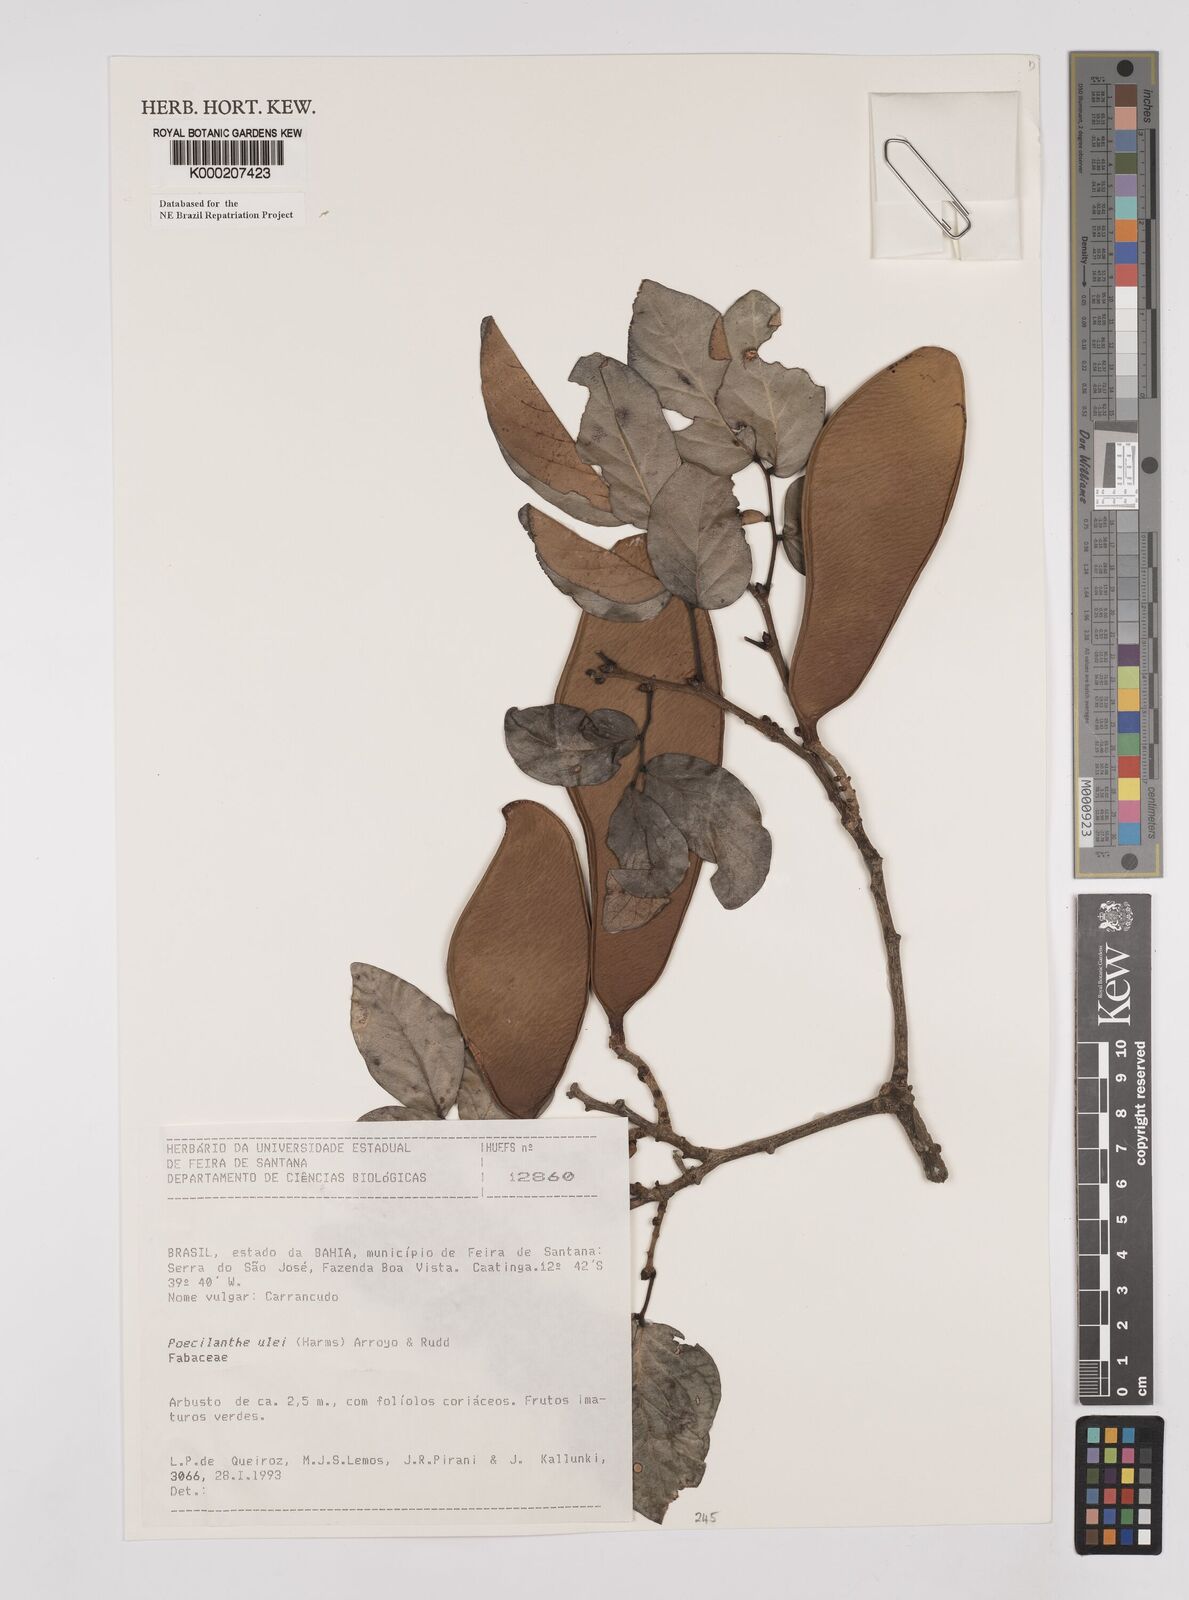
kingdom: Plantae
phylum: Tracheophyta
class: Magnoliopsida
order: Fabales
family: Fabaceae
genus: Poecilanthe
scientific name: Poecilanthe ulei
